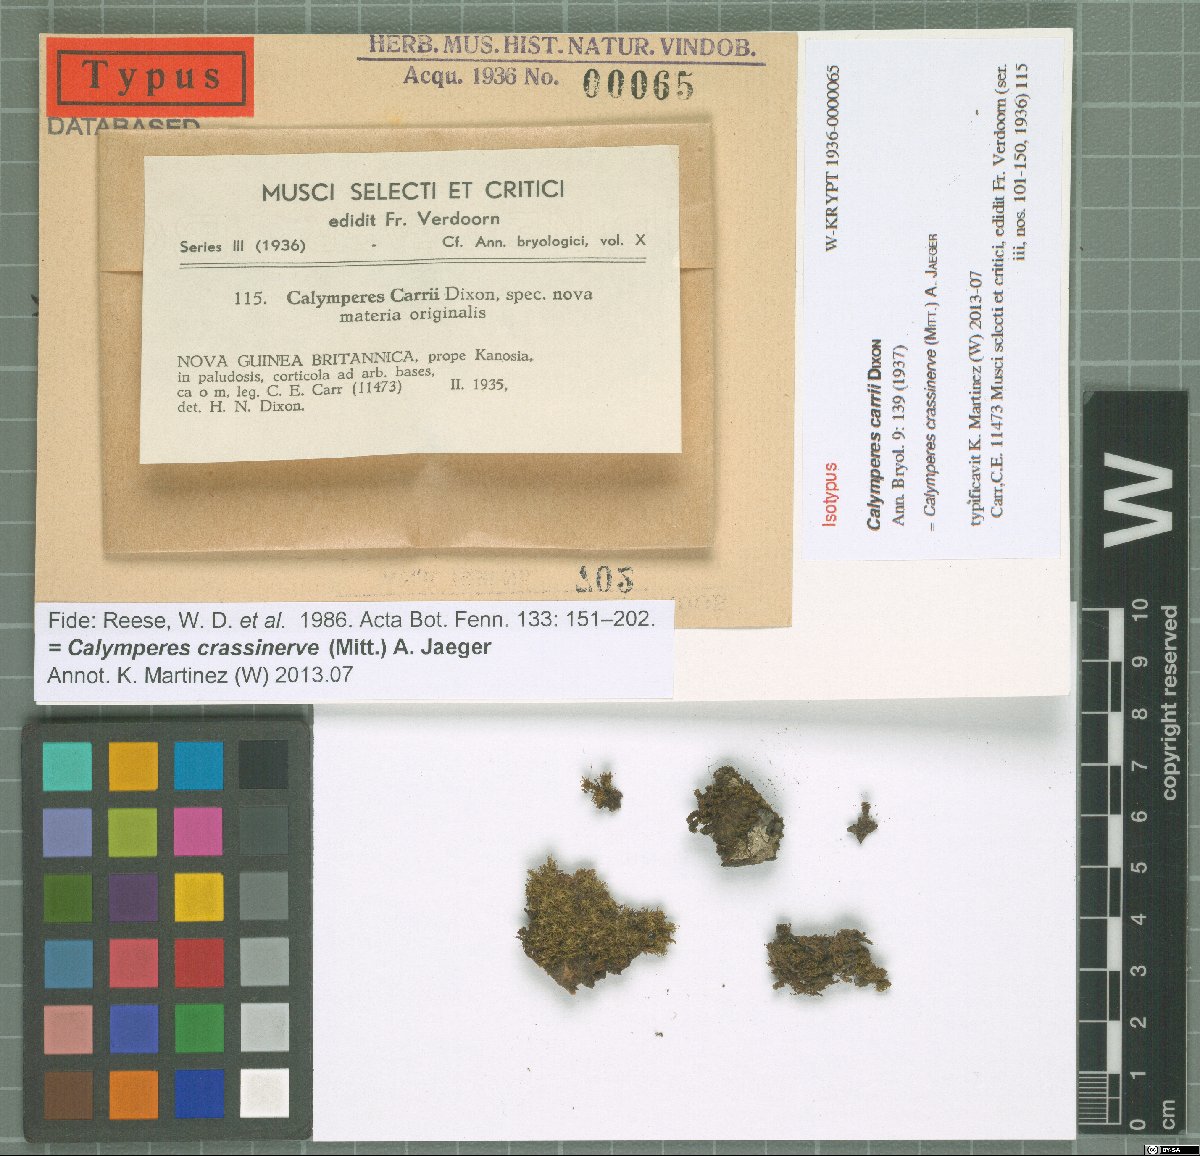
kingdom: Plantae
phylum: Bryophyta
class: Bryopsida
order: Dicranales
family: Calymperaceae
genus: Calymperes
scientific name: Calymperes crassinerve
